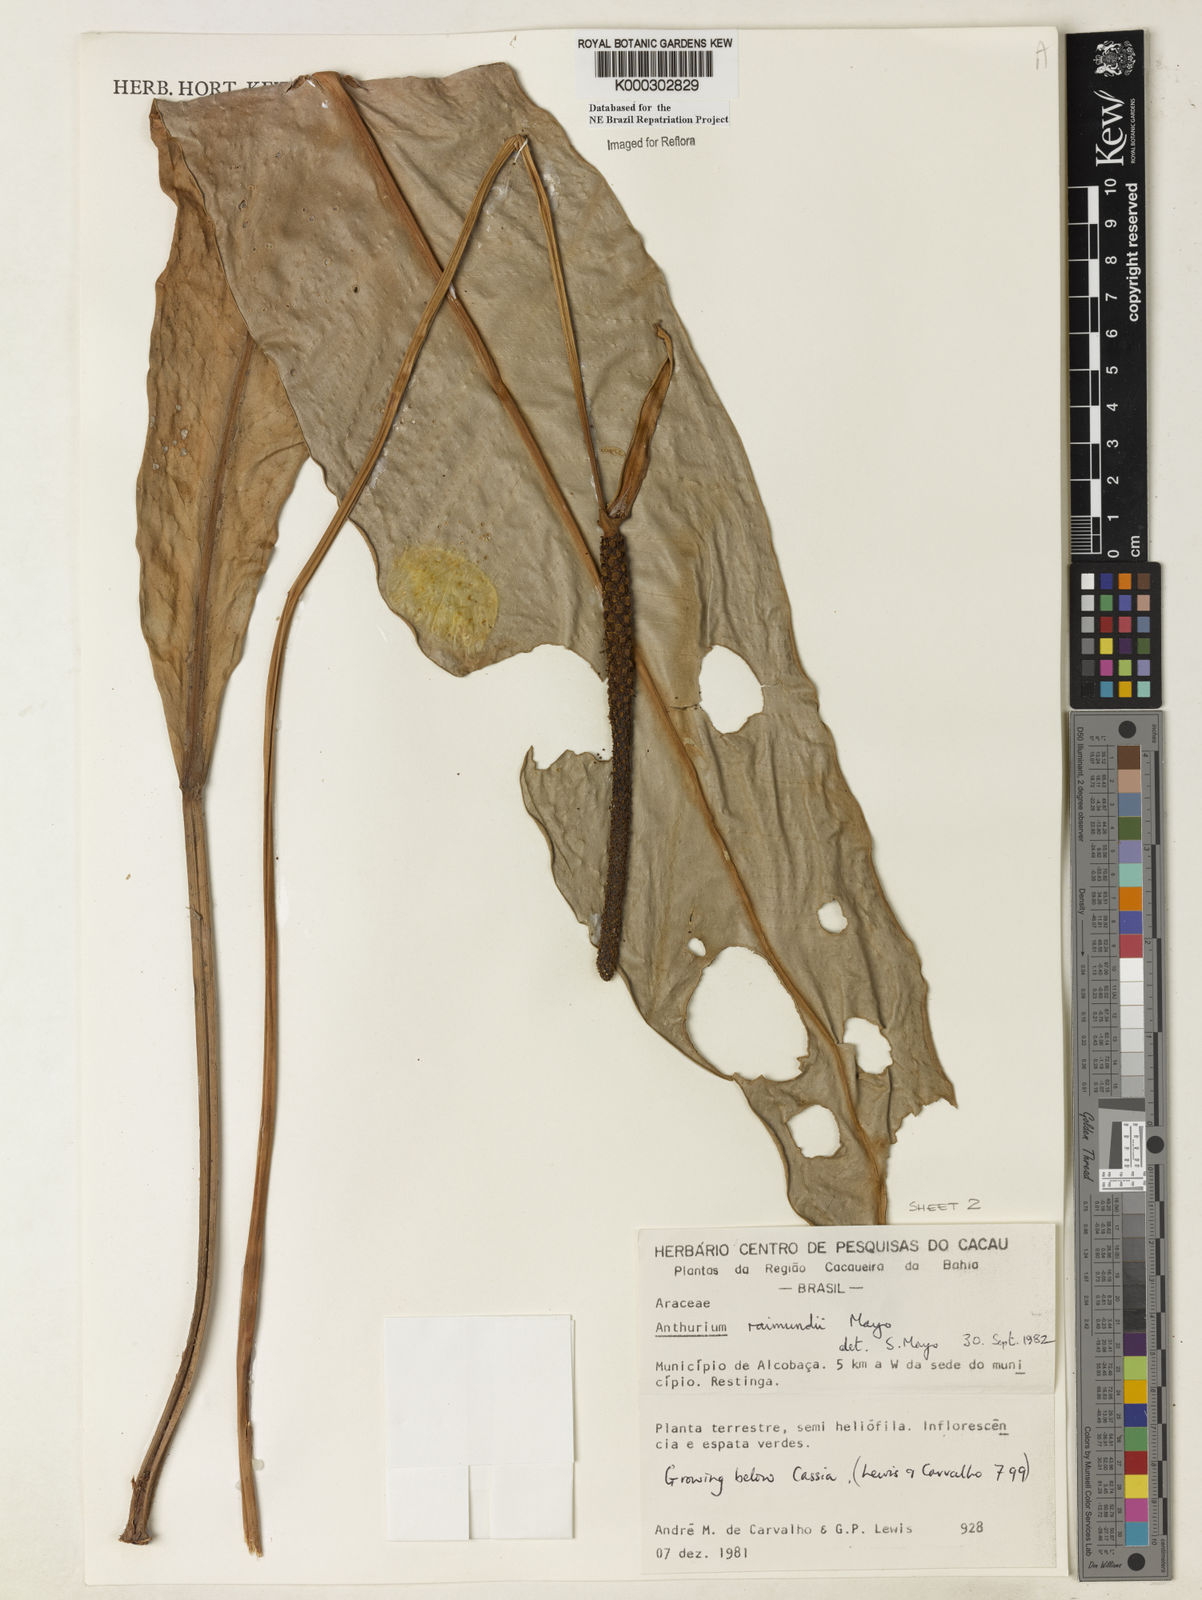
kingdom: Plantae
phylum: Tracheophyta
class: Liliopsida
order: Alismatales
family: Araceae
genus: Anthurium
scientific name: Anthurium raimundii
